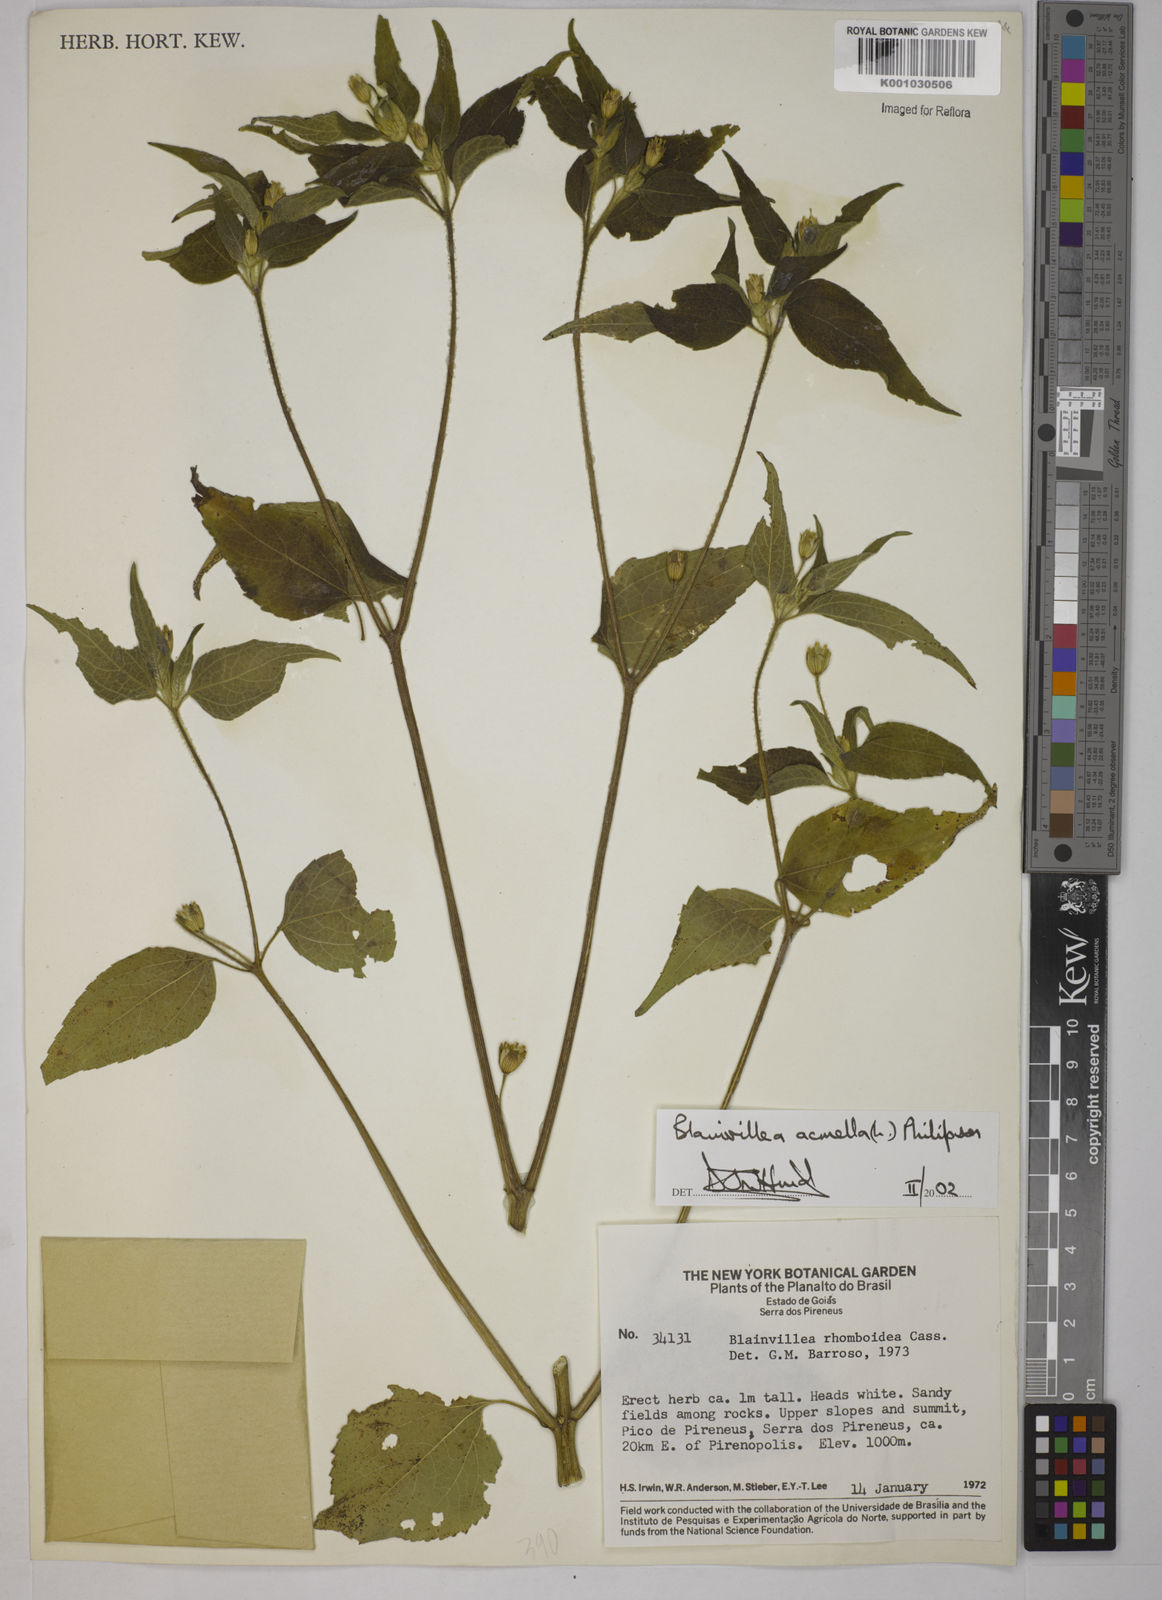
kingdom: Plantae
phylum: Tracheophyta
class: Magnoliopsida
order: Asterales
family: Asteraceae
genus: Blainvillea
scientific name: Blainvillea acmella
